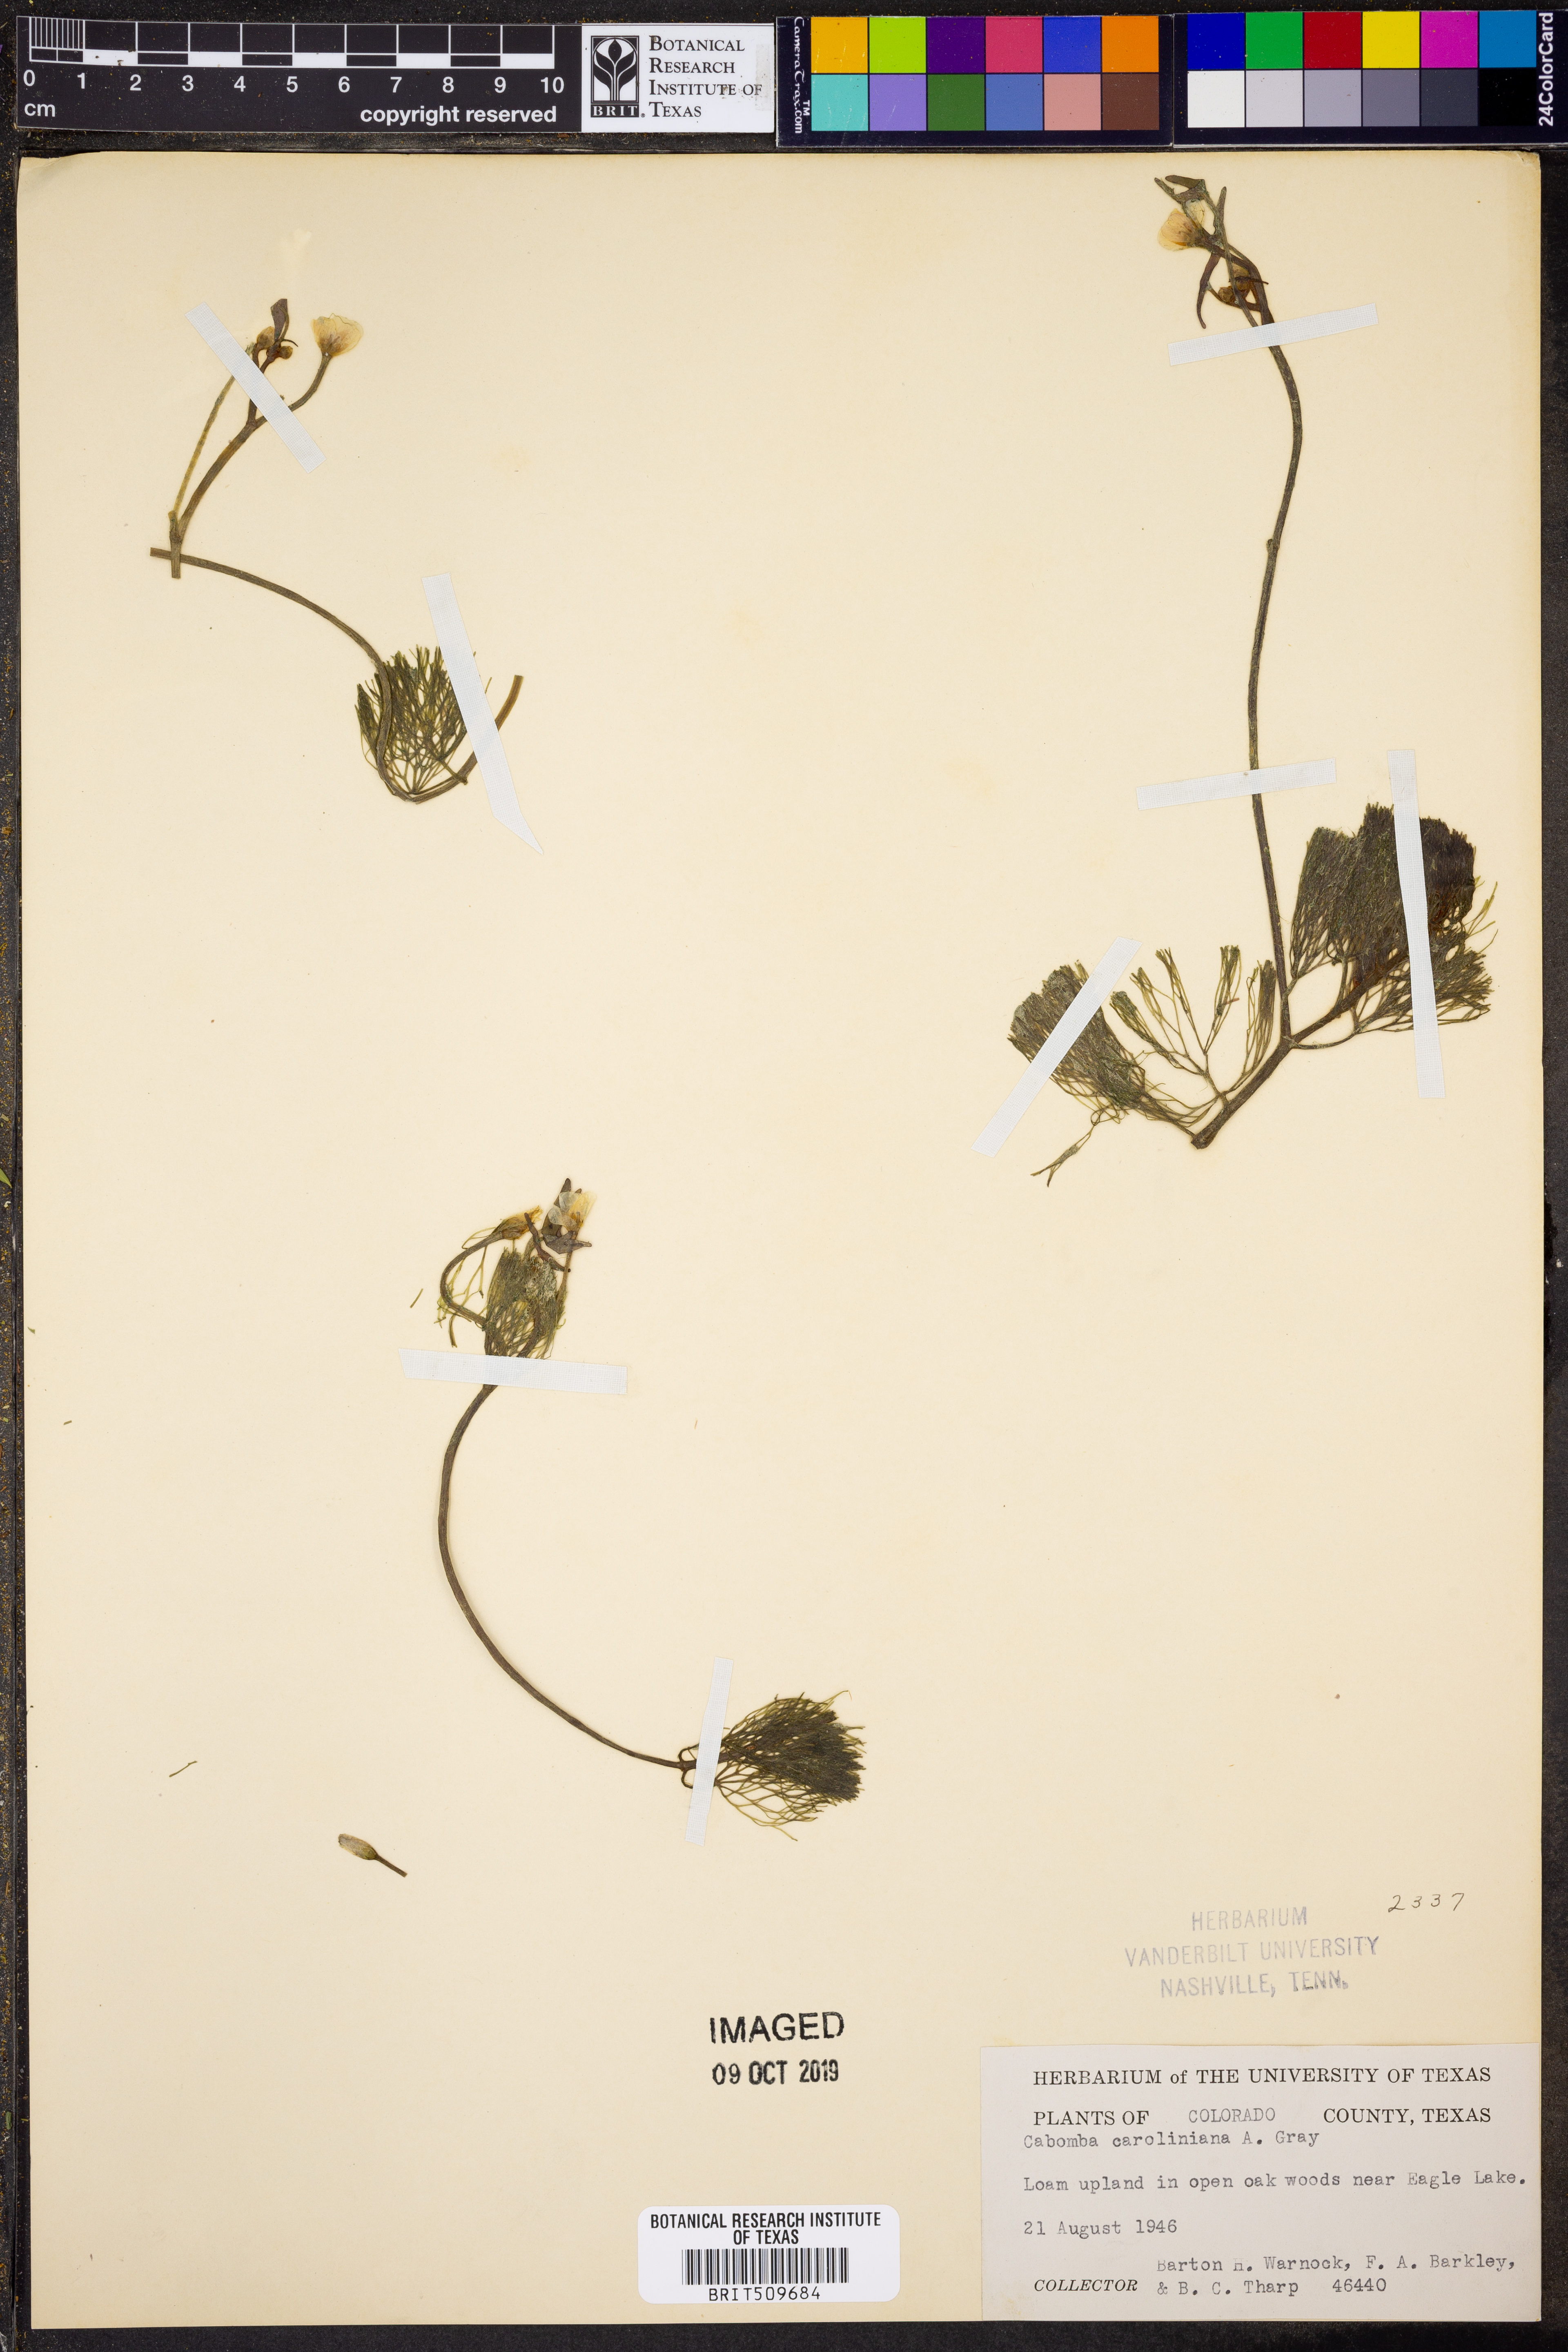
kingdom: Plantae
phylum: Tracheophyta
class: Magnoliopsida
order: Nymphaeales
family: Cabombaceae
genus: Cabomba
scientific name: Cabomba caroliniana
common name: Fanwort
